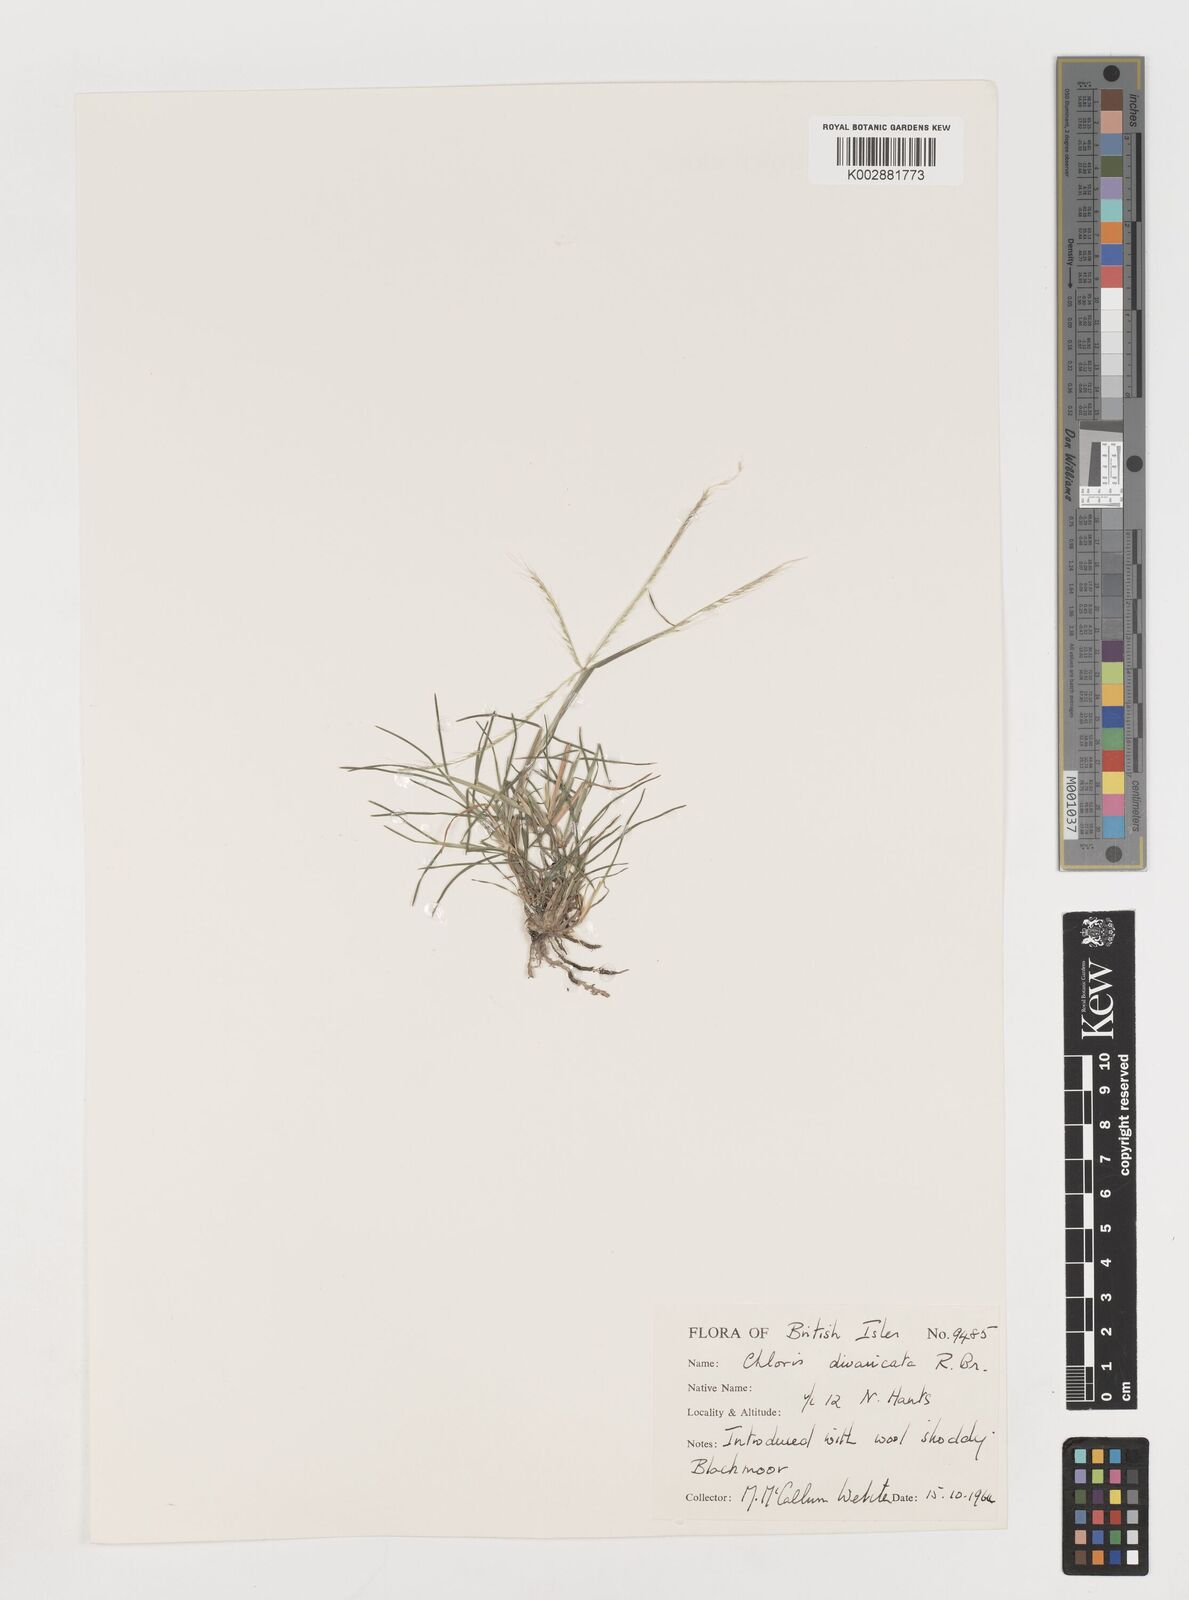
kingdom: Plantae
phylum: Tracheophyta
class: Liliopsida
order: Poales
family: Poaceae
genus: Chloris
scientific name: Chloris divaricata
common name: Spreading windmill grass
